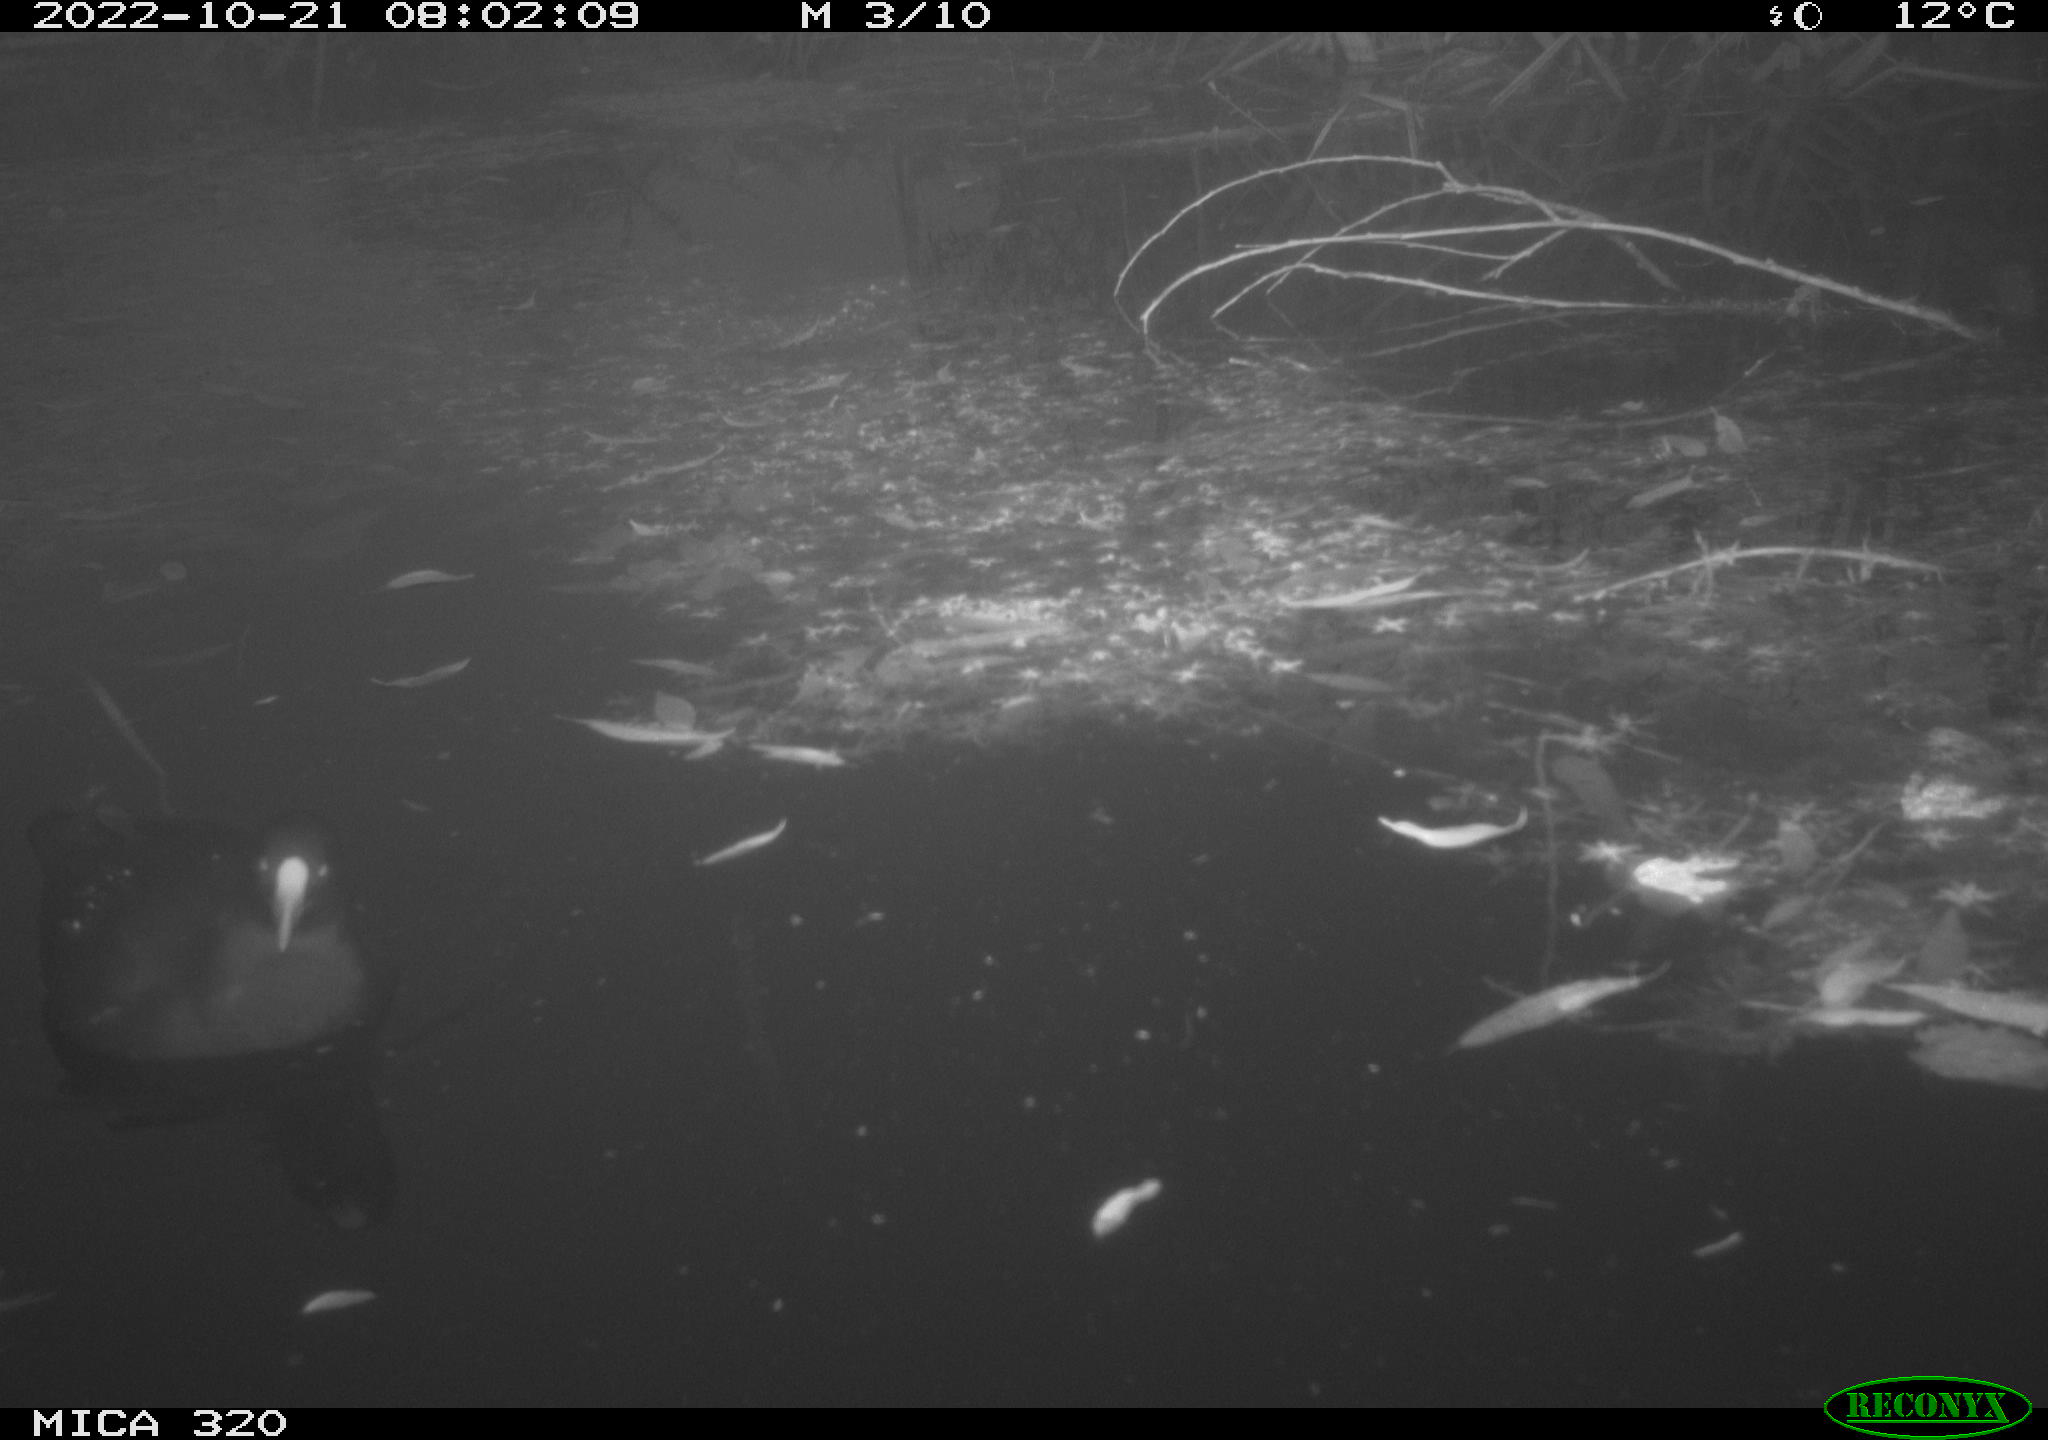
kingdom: Animalia
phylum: Chordata
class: Aves
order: Gruiformes
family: Rallidae
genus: Fulica
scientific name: Fulica atra
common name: Eurasian coot
